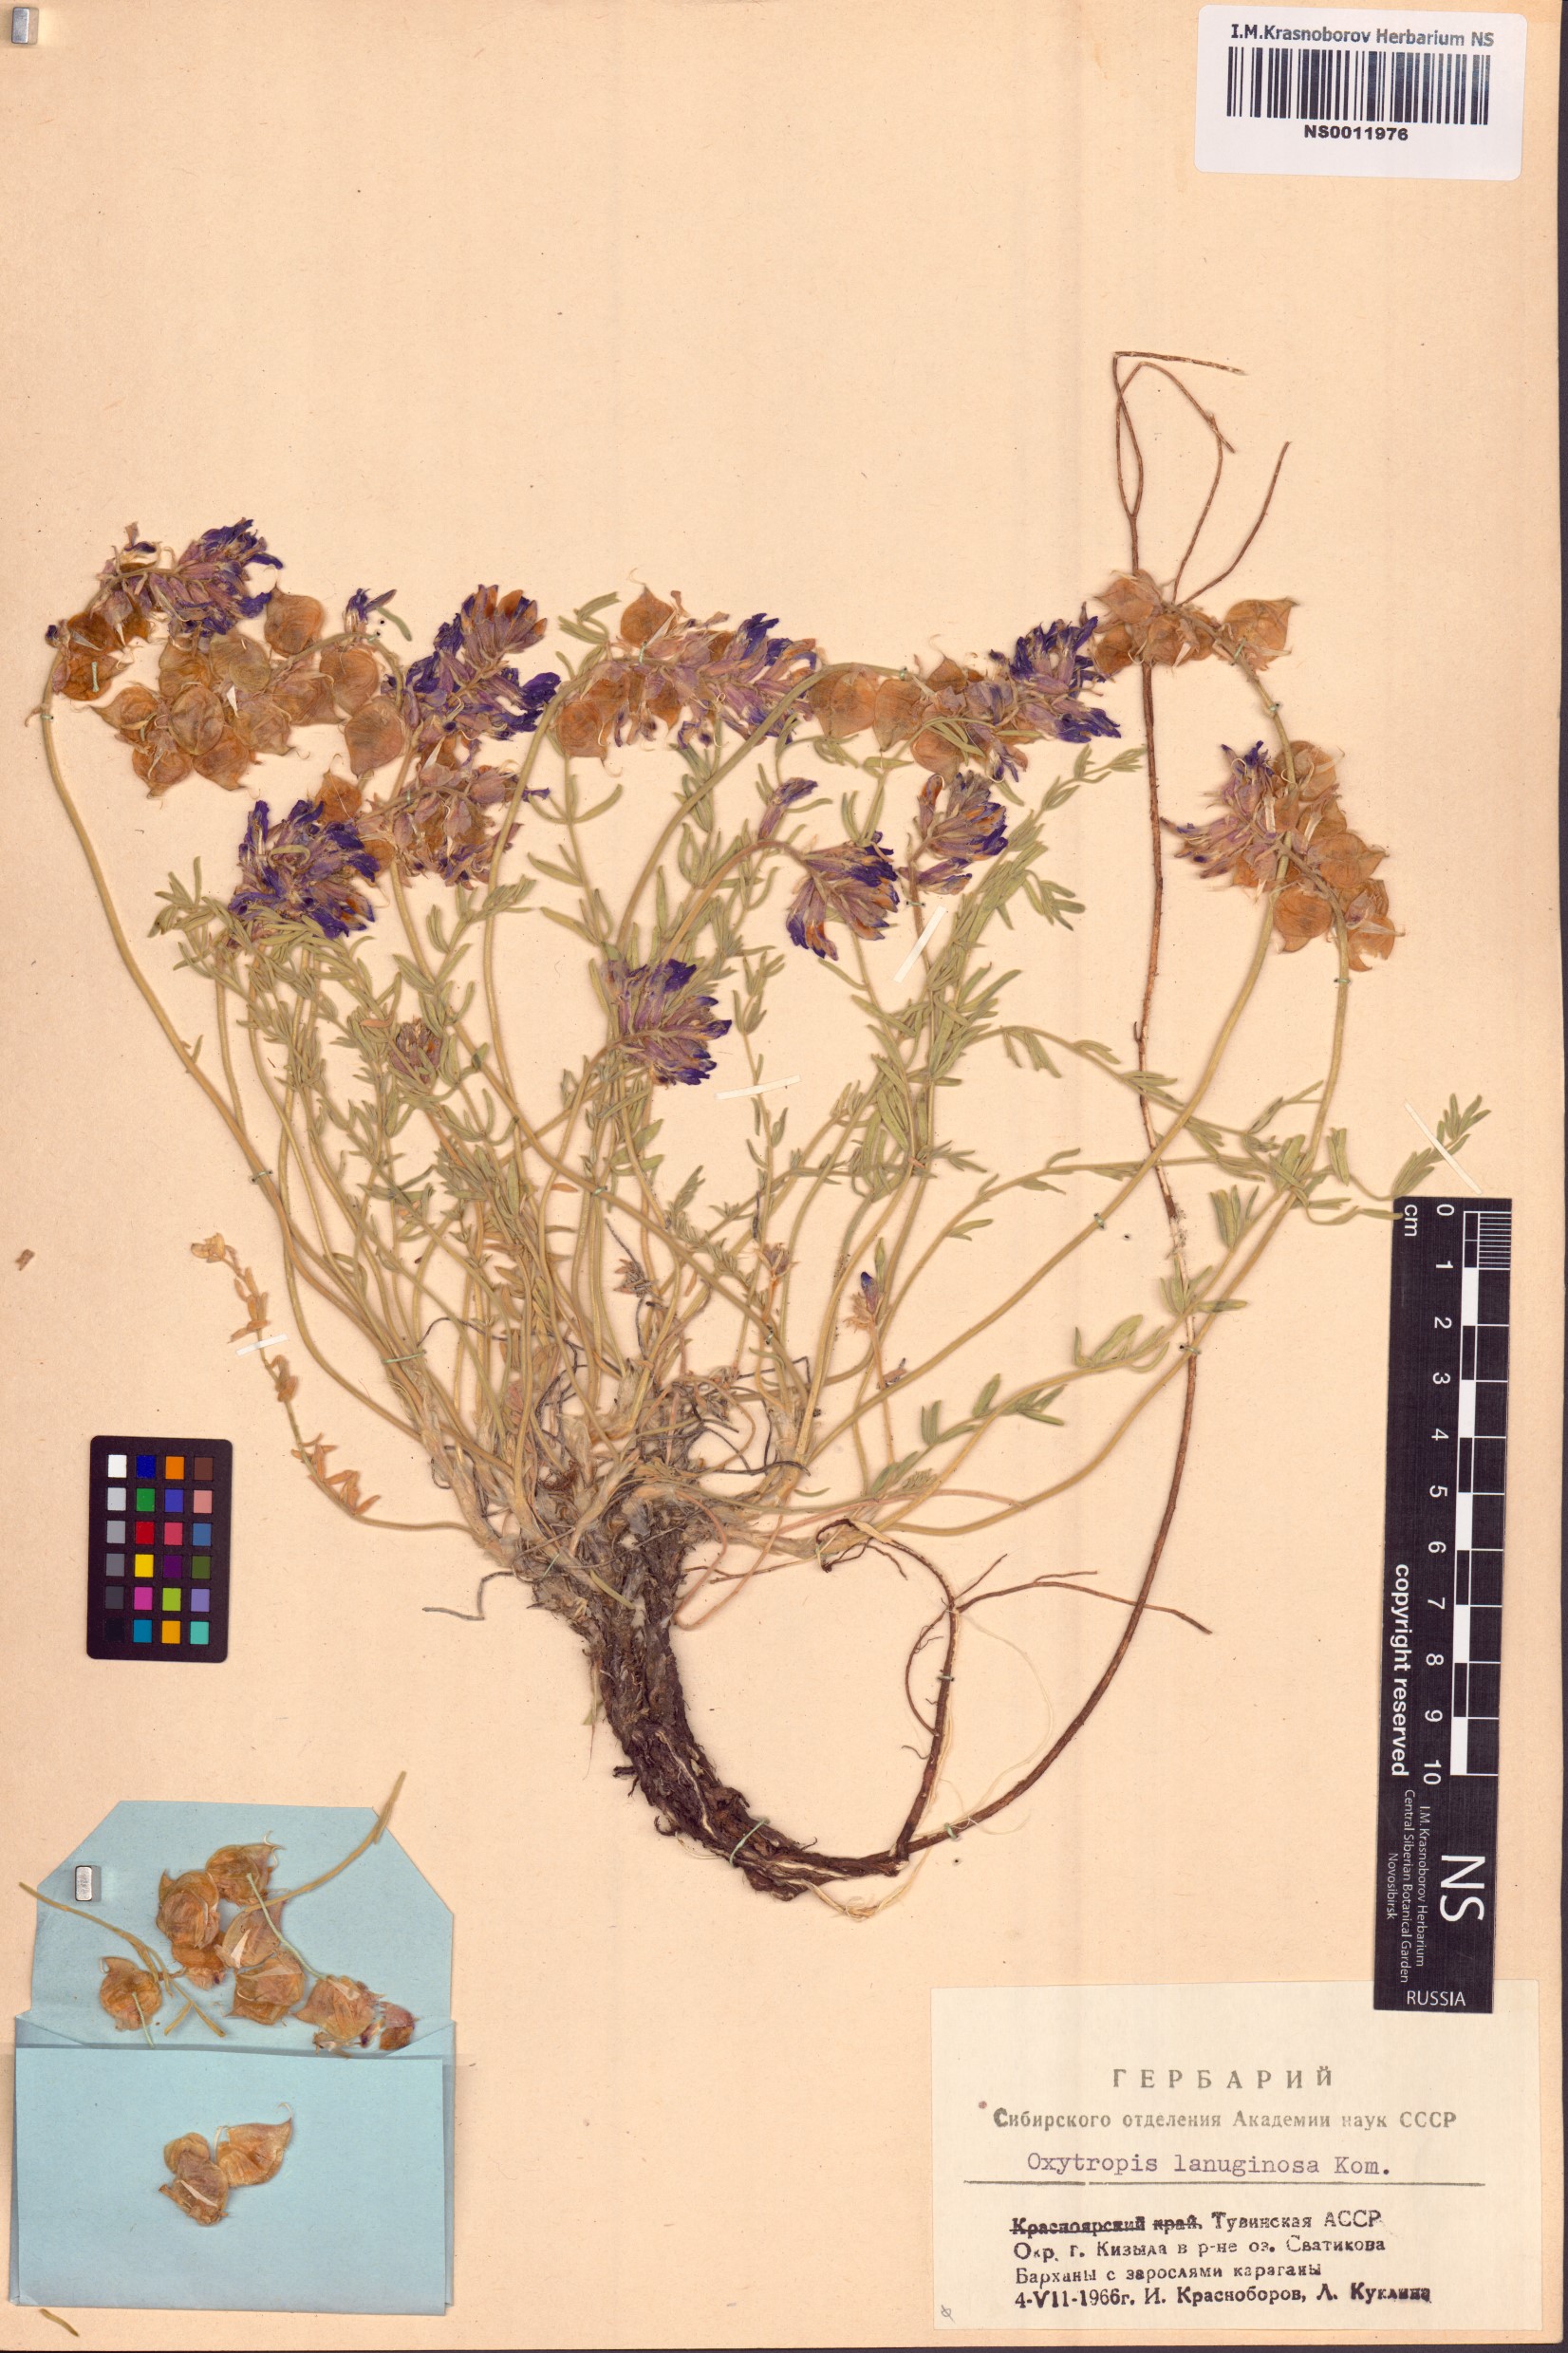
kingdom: Plantae
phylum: Tracheophyta
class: Magnoliopsida
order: Fabales
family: Fabaceae
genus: Oxytropis
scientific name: Oxytropis lanuginosa
